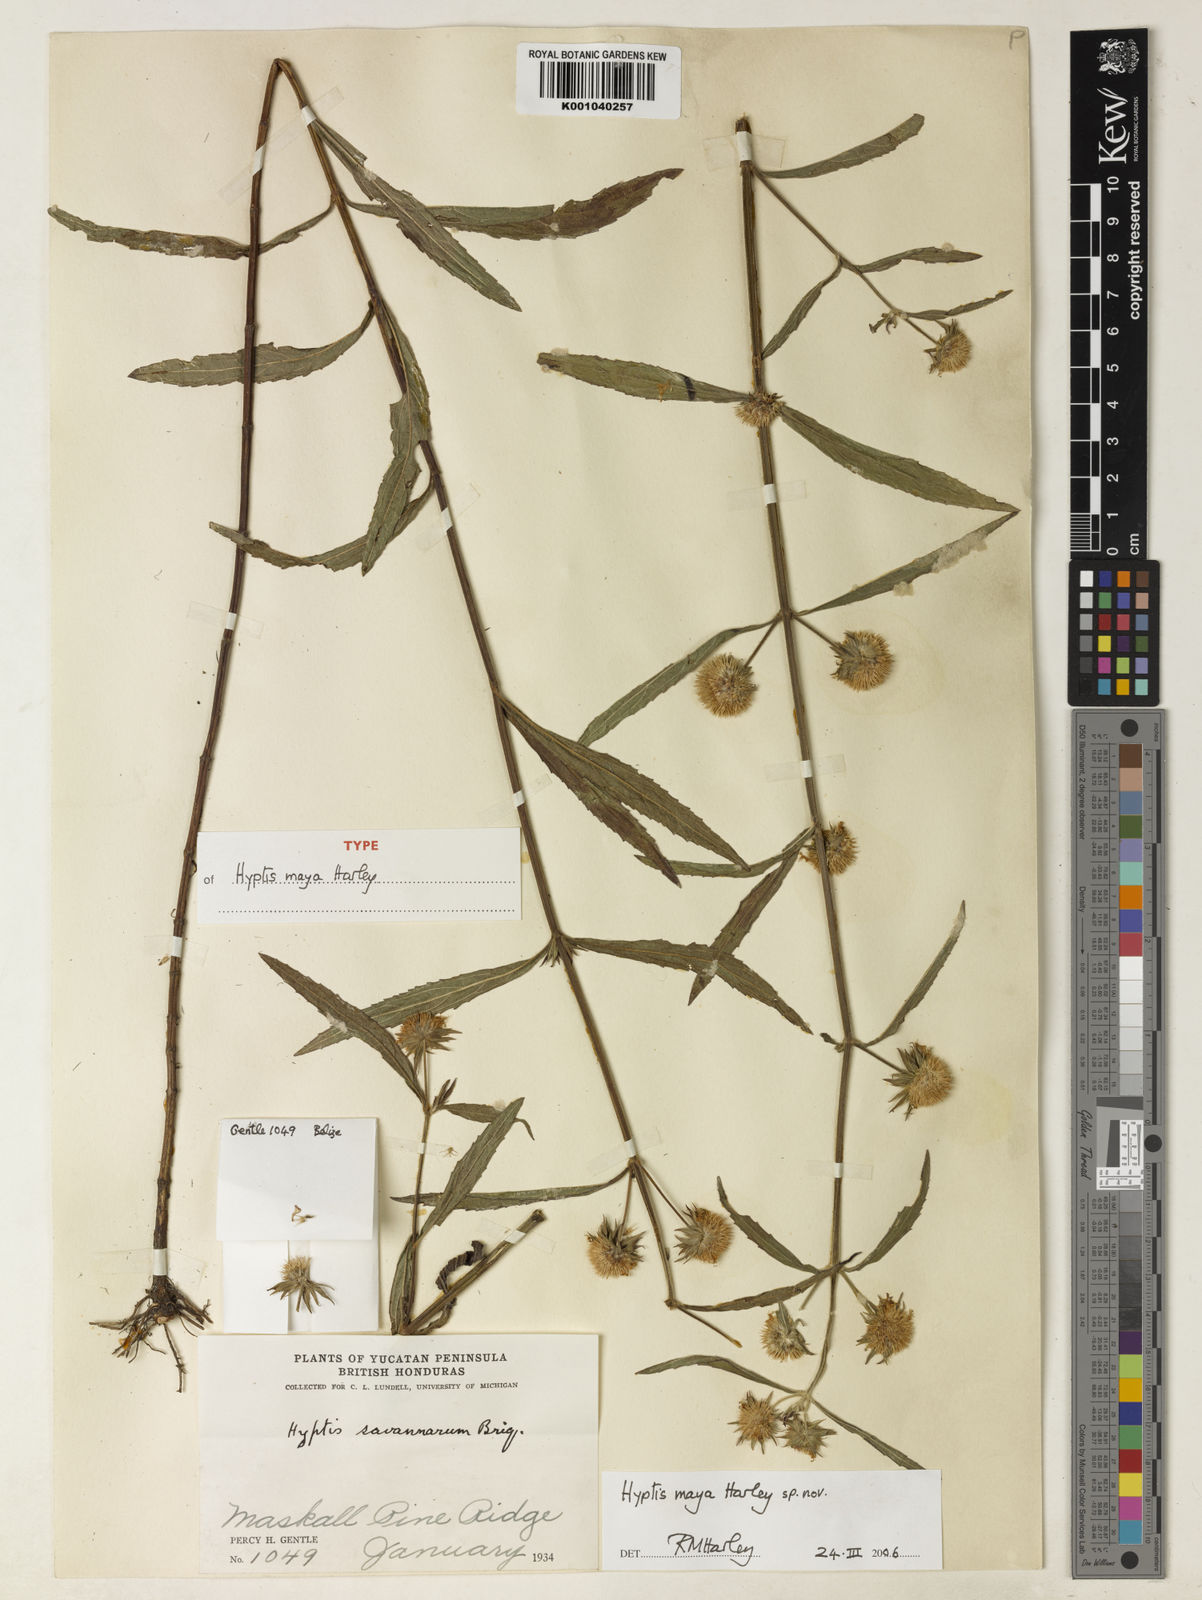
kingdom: Plantae
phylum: Tracheophyta
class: Magnoliopsida
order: Lamiales
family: Lamiaceae
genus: Hyptis
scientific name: Hyptis maya
